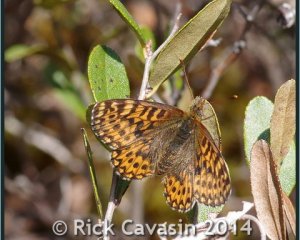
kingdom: Animalia
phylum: Arthropoda
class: Insecta
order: Lepidoptera
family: Nymphalidae
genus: Boloria
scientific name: Boloria freija
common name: Freija Fritillary
